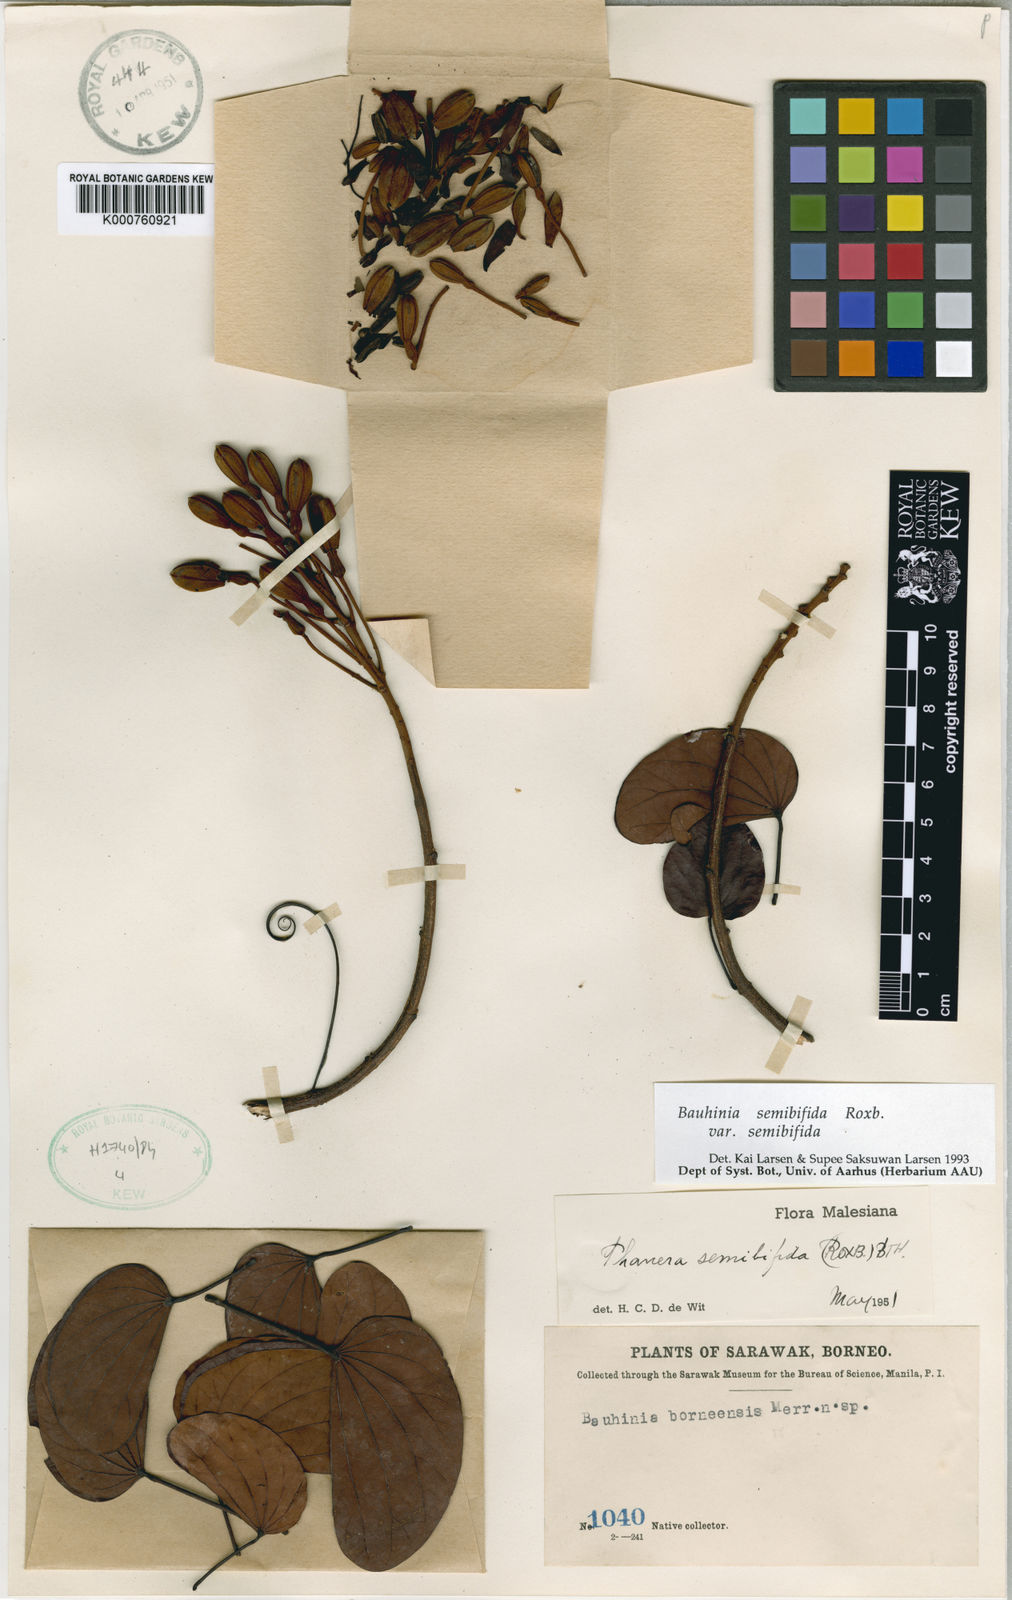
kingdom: Plantae
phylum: Tracheophyta
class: Magnoliopsida
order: Fabales
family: Fabaceae
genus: Phanera
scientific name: Phanera semibifida
